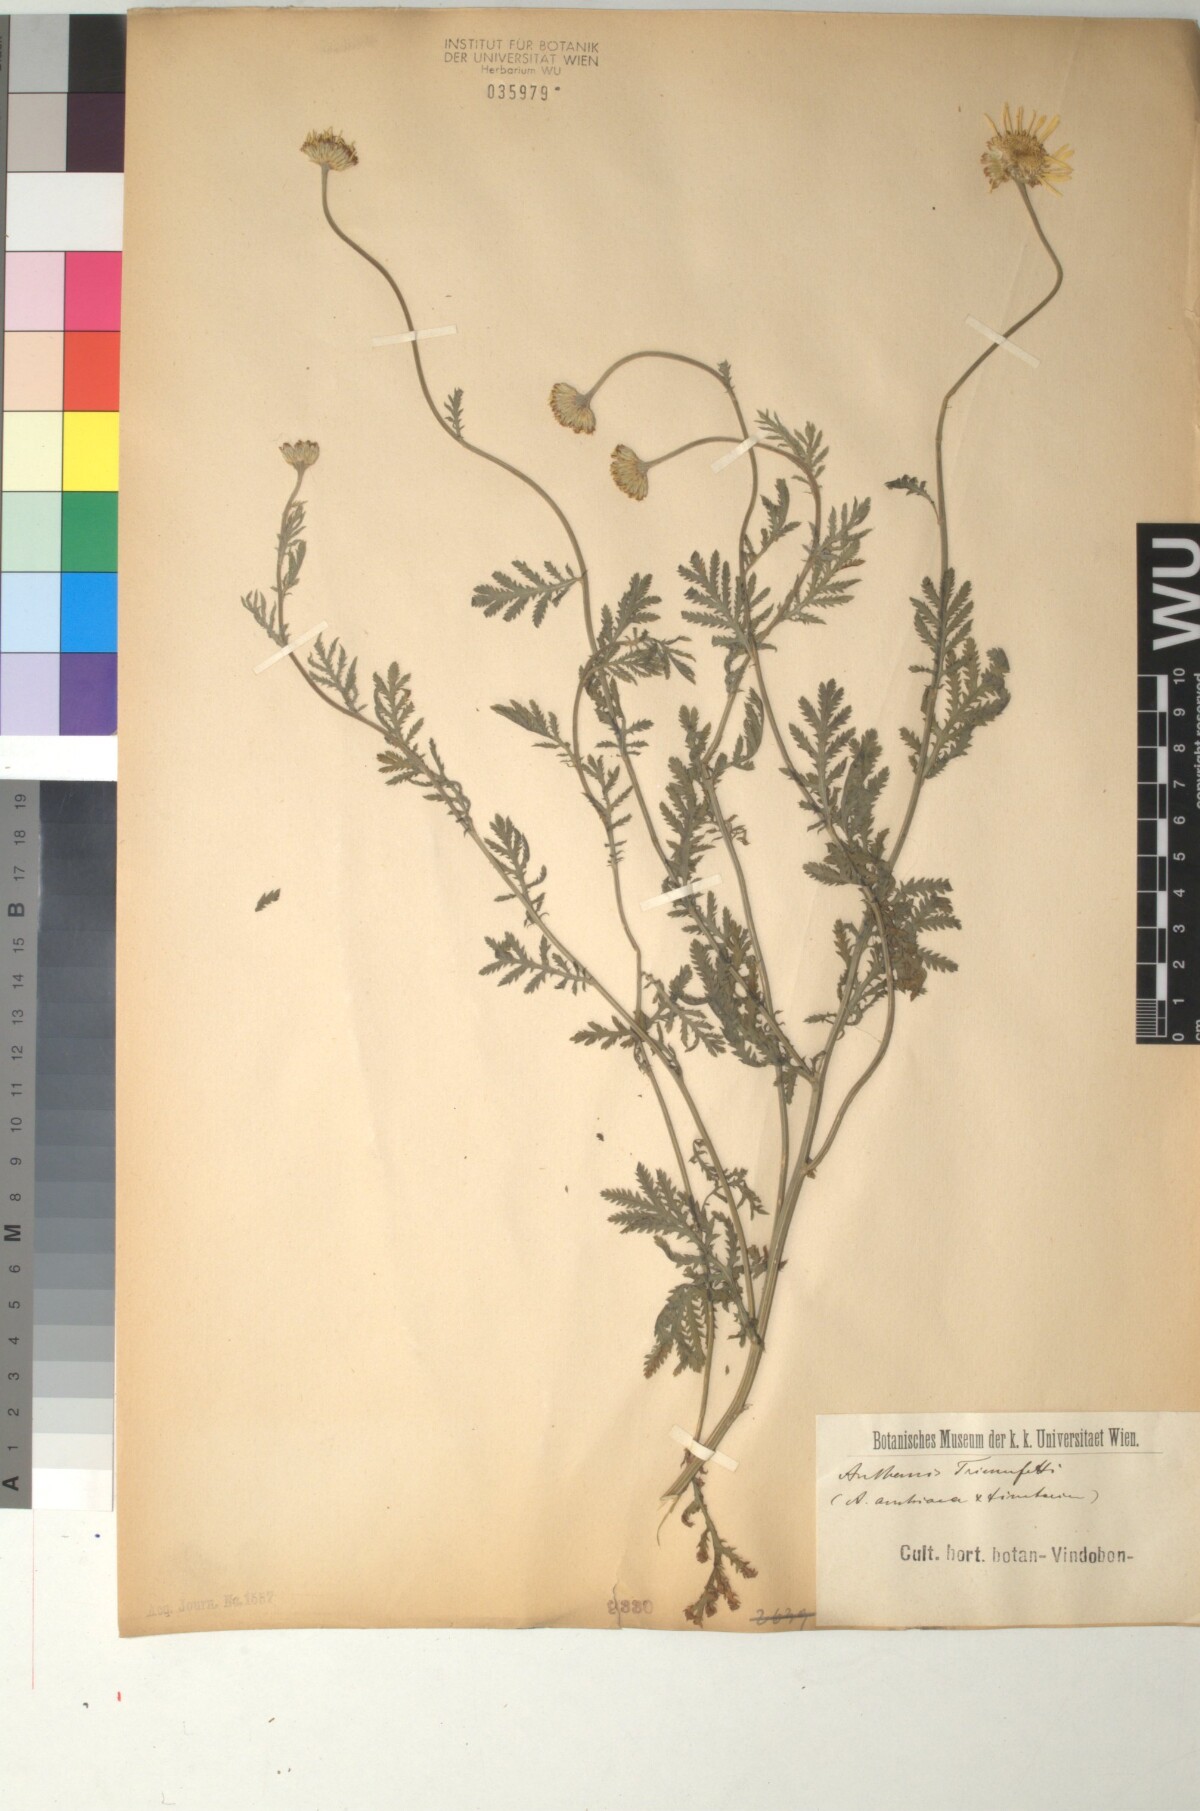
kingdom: Plantae
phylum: Tracheophyta
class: Magnoliopsida
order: Asterales
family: Asteraceae
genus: Cota
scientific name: Cota austriaca
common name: Austrian chamomile
